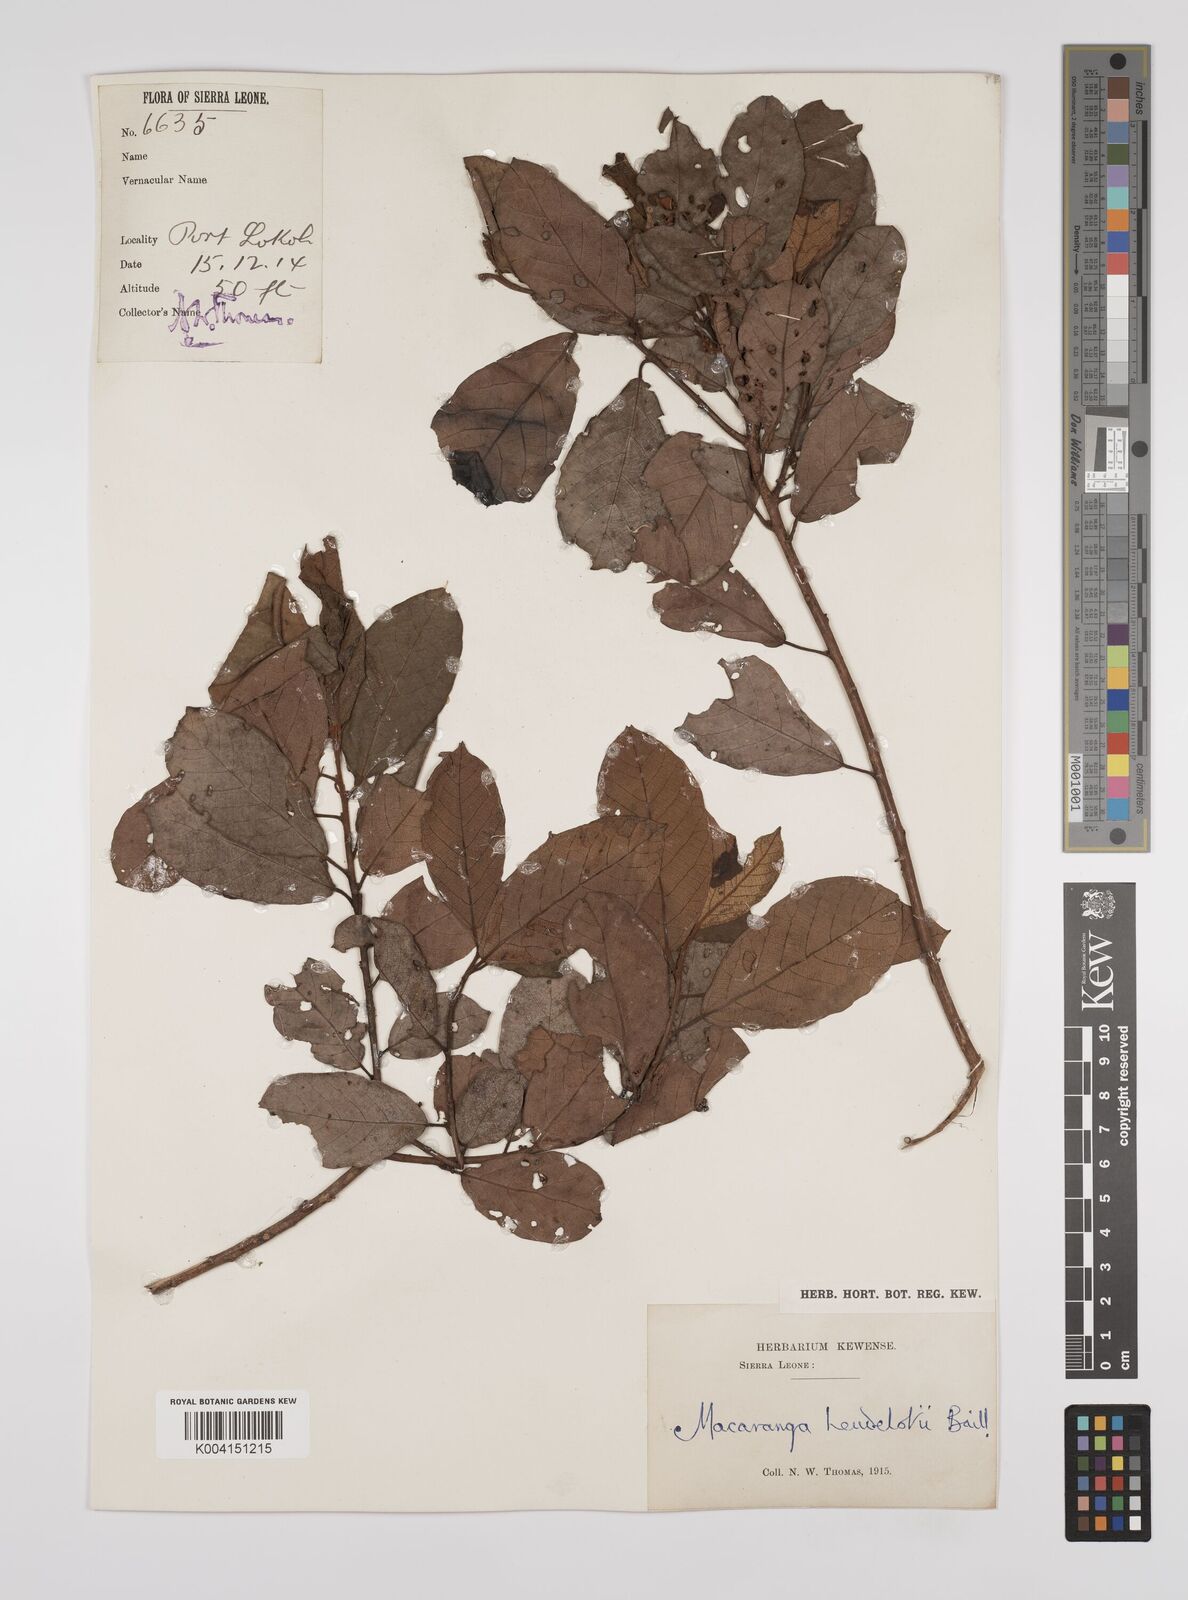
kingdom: Plantae
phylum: Tracheophyta
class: Magnoliopsida
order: Malpighiales
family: Euphorbiaceae
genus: Macaranga
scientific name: Macaranga heudelotii
